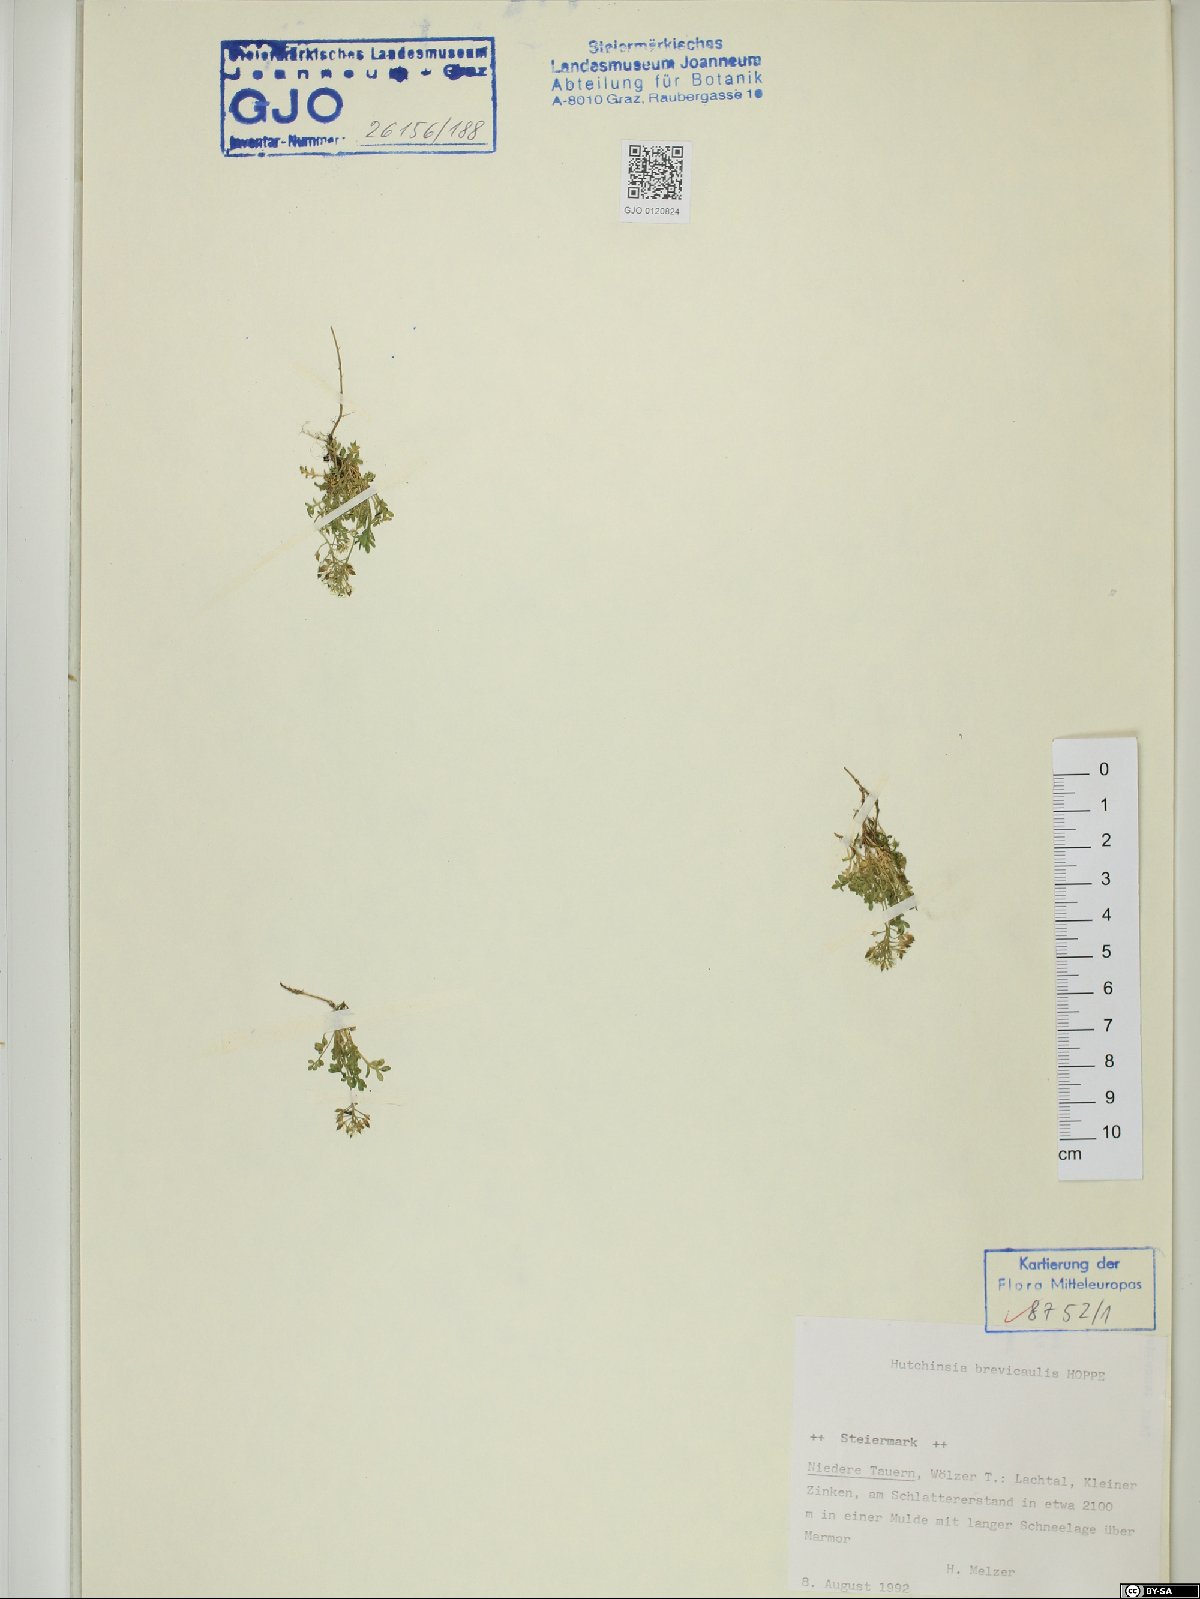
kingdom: Plantae
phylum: Tracheophyta
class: Magnoliopsida
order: Brassicales
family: Brassicaceae
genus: Hornungia
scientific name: Hornungia alpina
